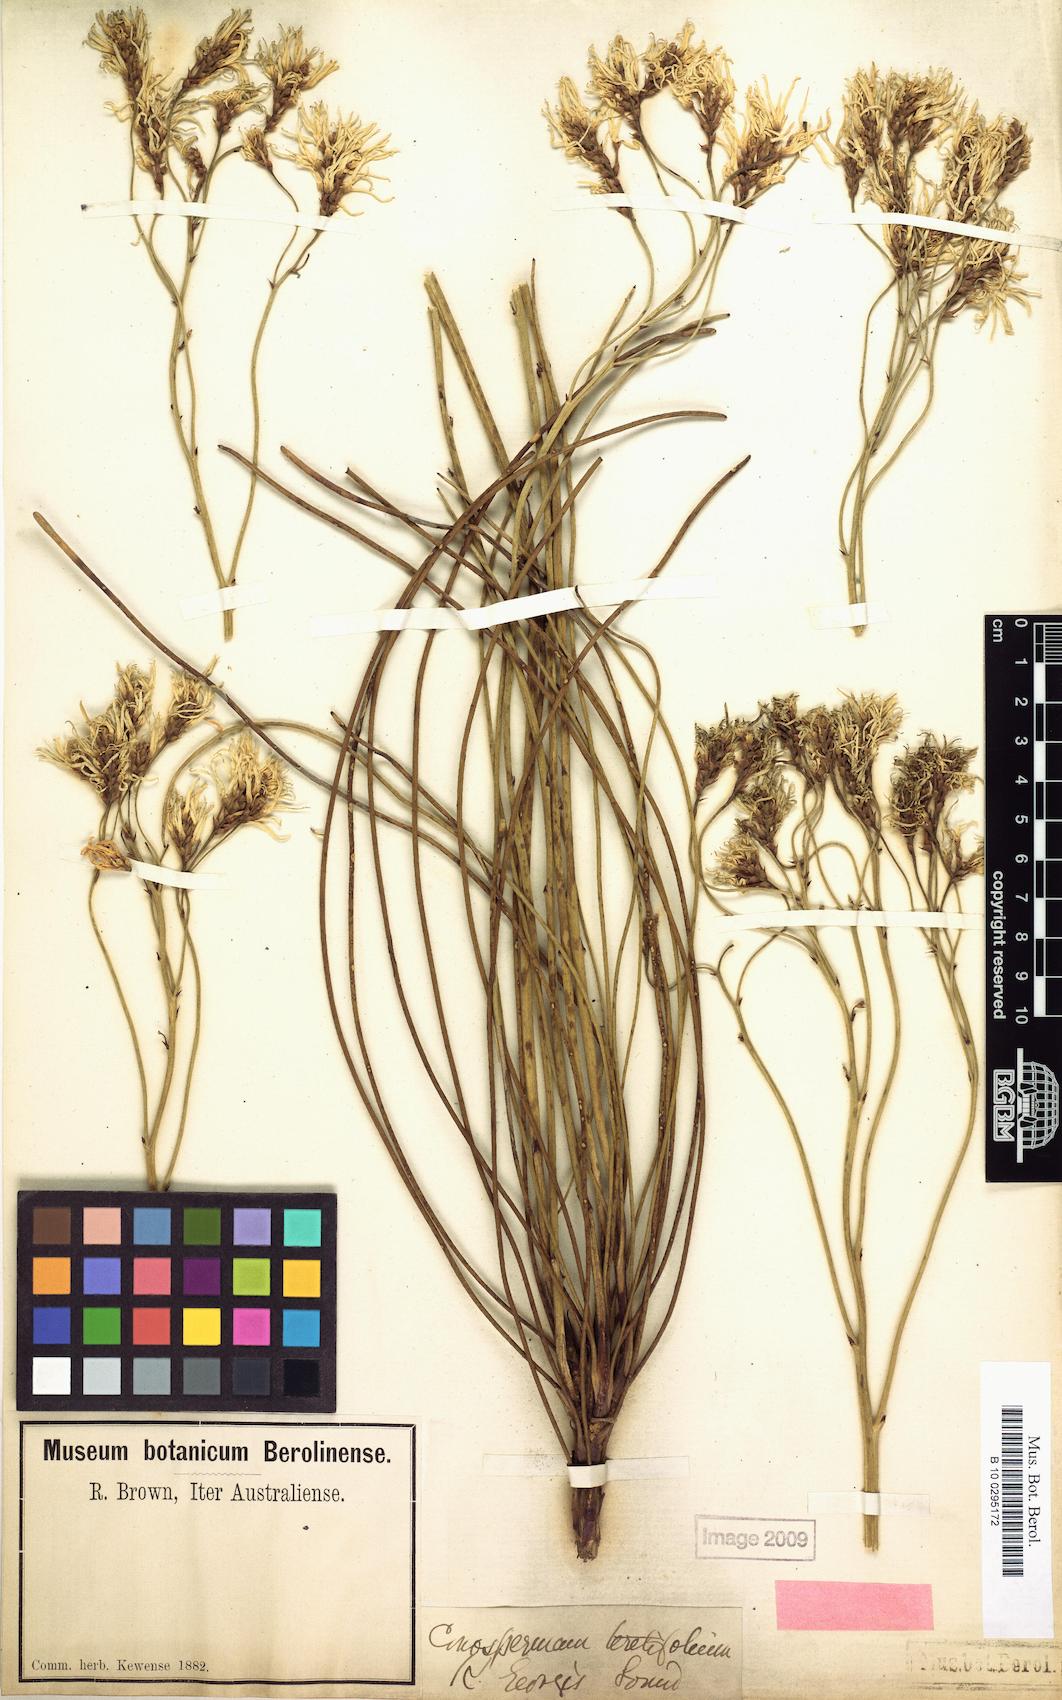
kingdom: Plantae
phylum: Tracheophyta
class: Magnoliopsida
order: Proteales
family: Proteaceae
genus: Conospermum
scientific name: Conospermum teretifolium
